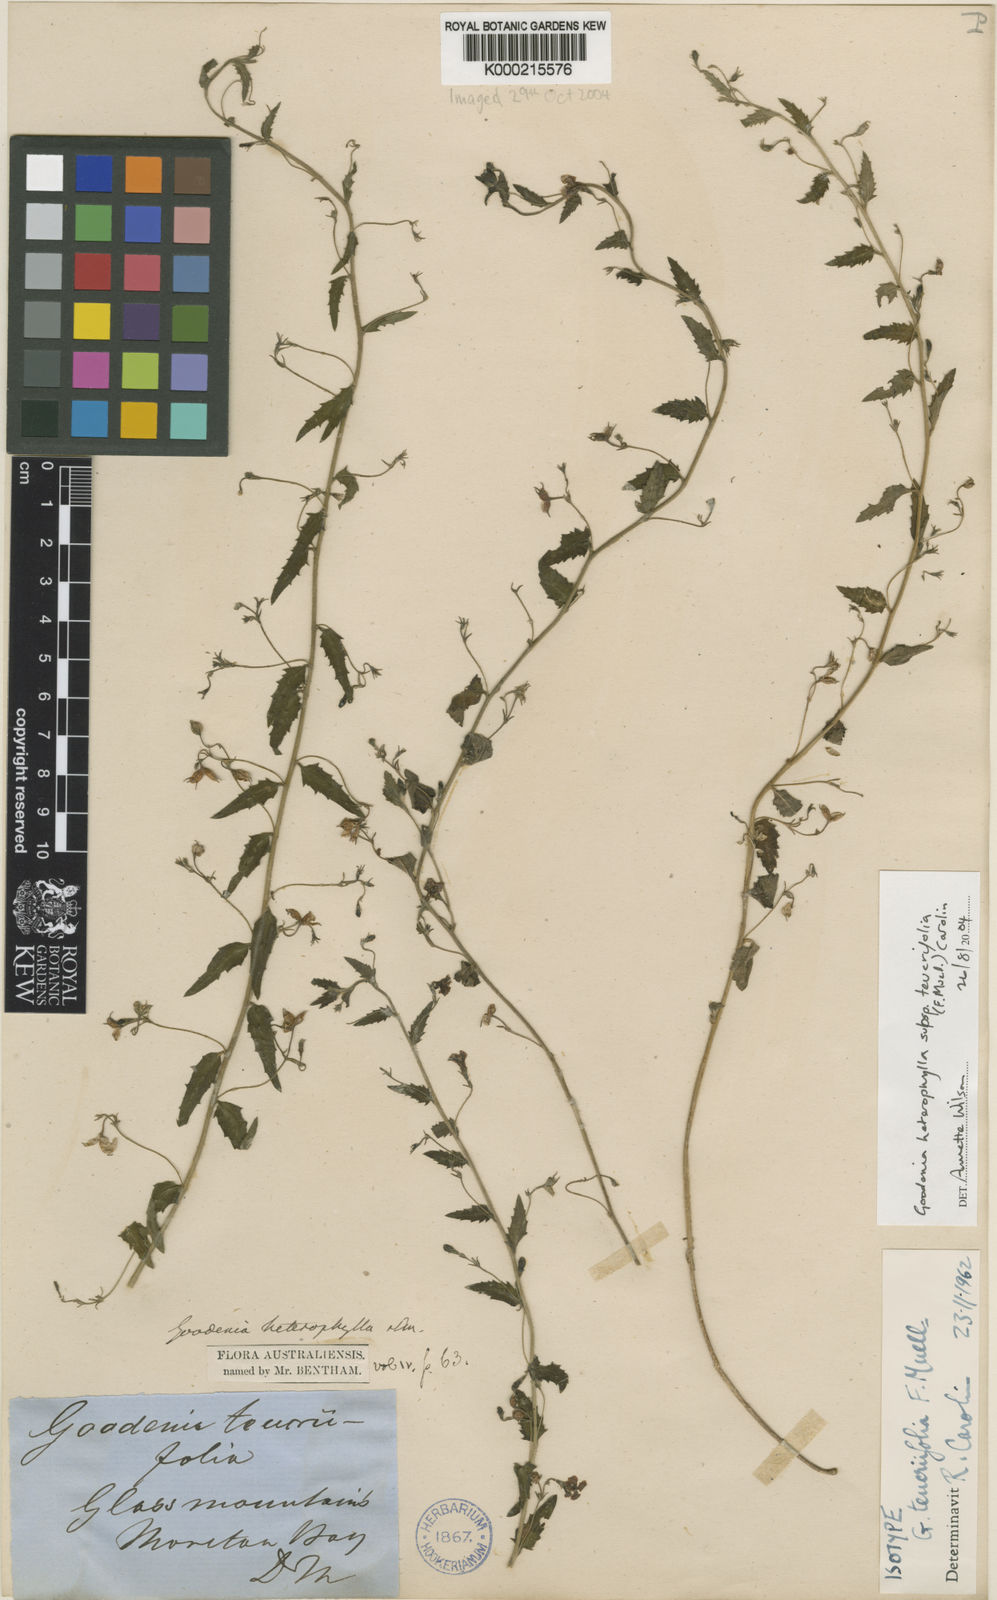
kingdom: Plantae
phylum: Tracheophyta
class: Magnoliopsida
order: Asterales
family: Goodeniaceae
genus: Goodenia
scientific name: Goodenia heterophylla
